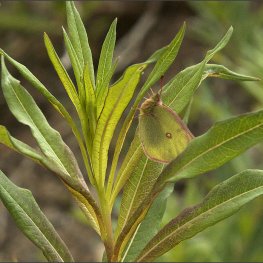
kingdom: Animalia
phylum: Arthropoda
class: Insecta
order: Lepidoptera
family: Pieridae
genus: Colias
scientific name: Colias interior
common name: Pink-edged Sulphur
